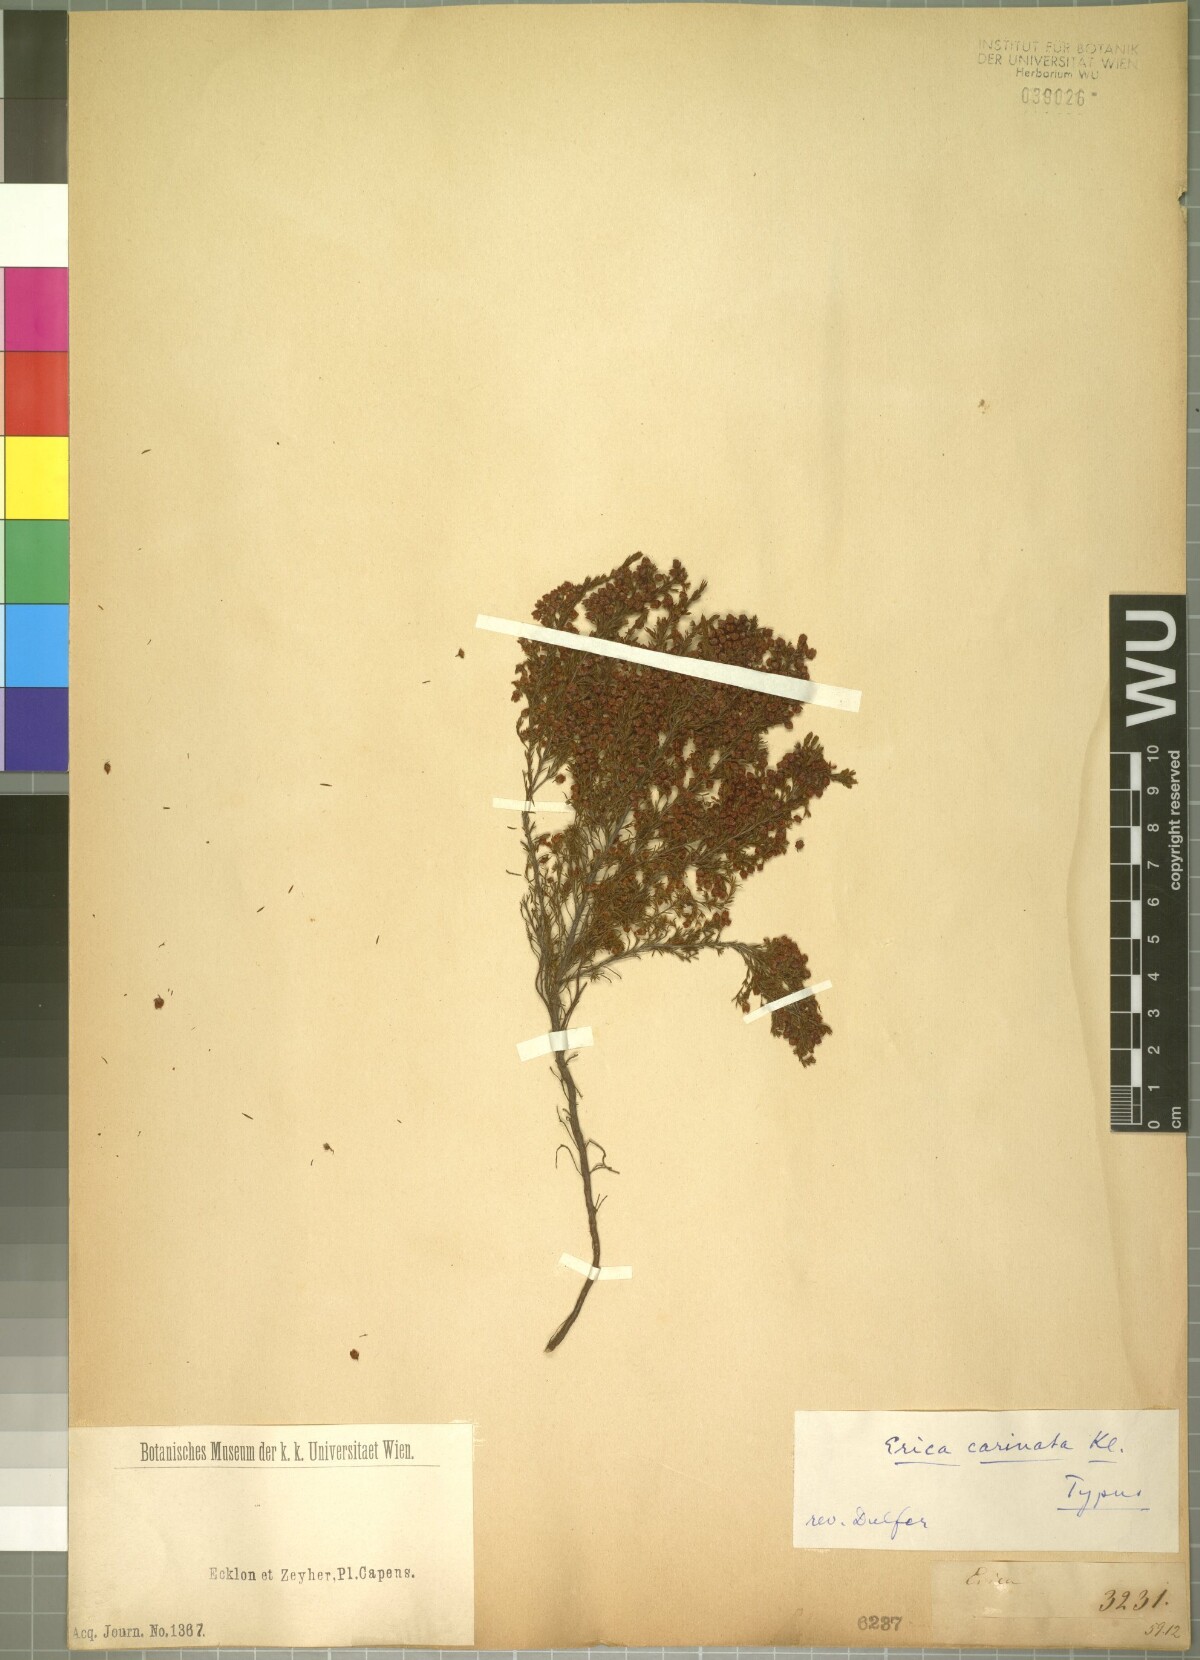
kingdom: Plantae
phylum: Tracheophyta
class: Magnoliopsida
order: Ericales
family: Ericaceae
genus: Erica
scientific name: Erica atricha
